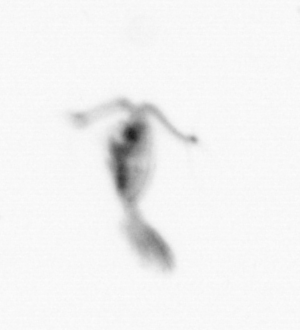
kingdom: Animalia
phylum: Arthropoda
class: Copepoda
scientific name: Copepoda
